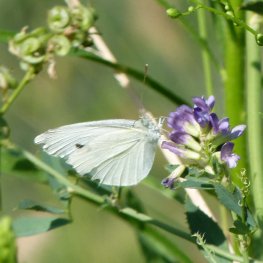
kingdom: Animalia
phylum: Arthropoda
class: Insecta
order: Lepidoptera
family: Pieridae
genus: Pieris
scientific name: Pieris rapae
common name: Cabbage White
